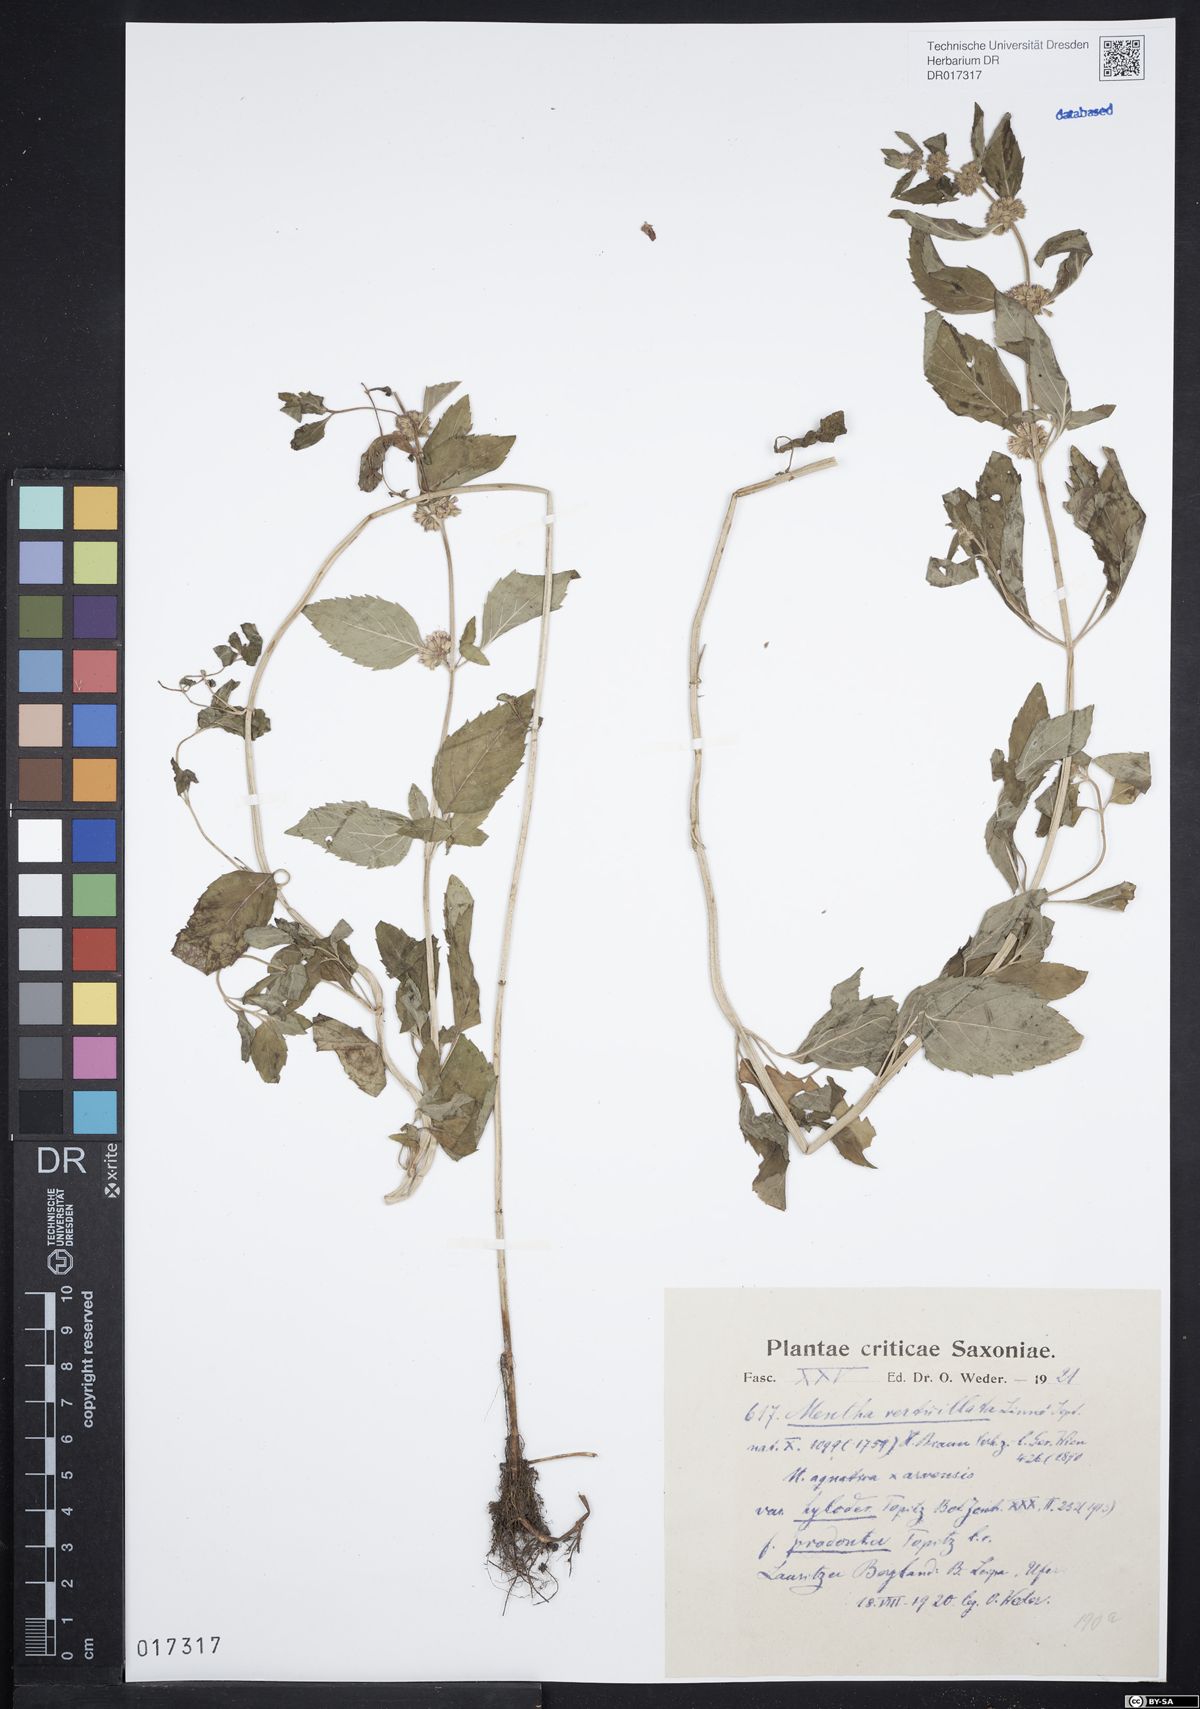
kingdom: Plantae
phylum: Tracheophyta
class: Magnoliopsida
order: Lamiales
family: Lamiaceae
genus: Mentha
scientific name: Mentha verticillata
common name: Mint
